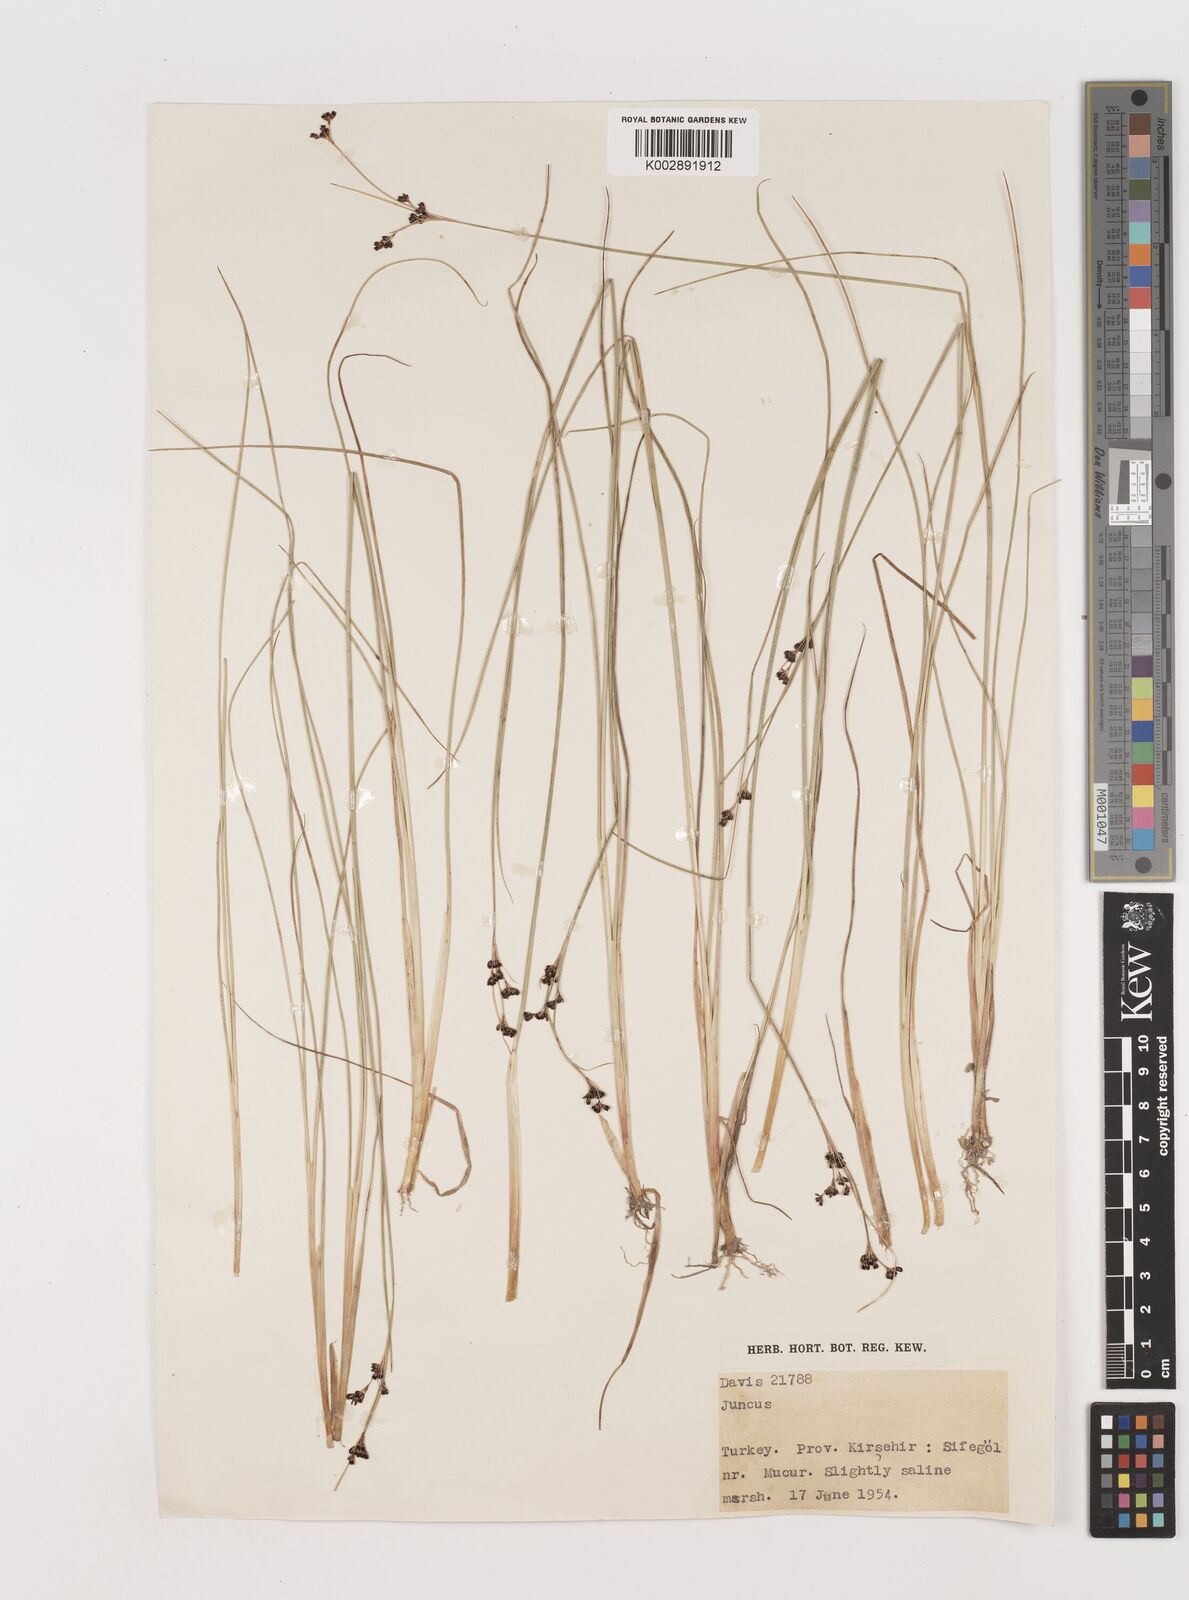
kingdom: Plantae
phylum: Tracheophyta
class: Liliopsida
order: Poales
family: Juncaceae
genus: Juncus
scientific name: Juncus
